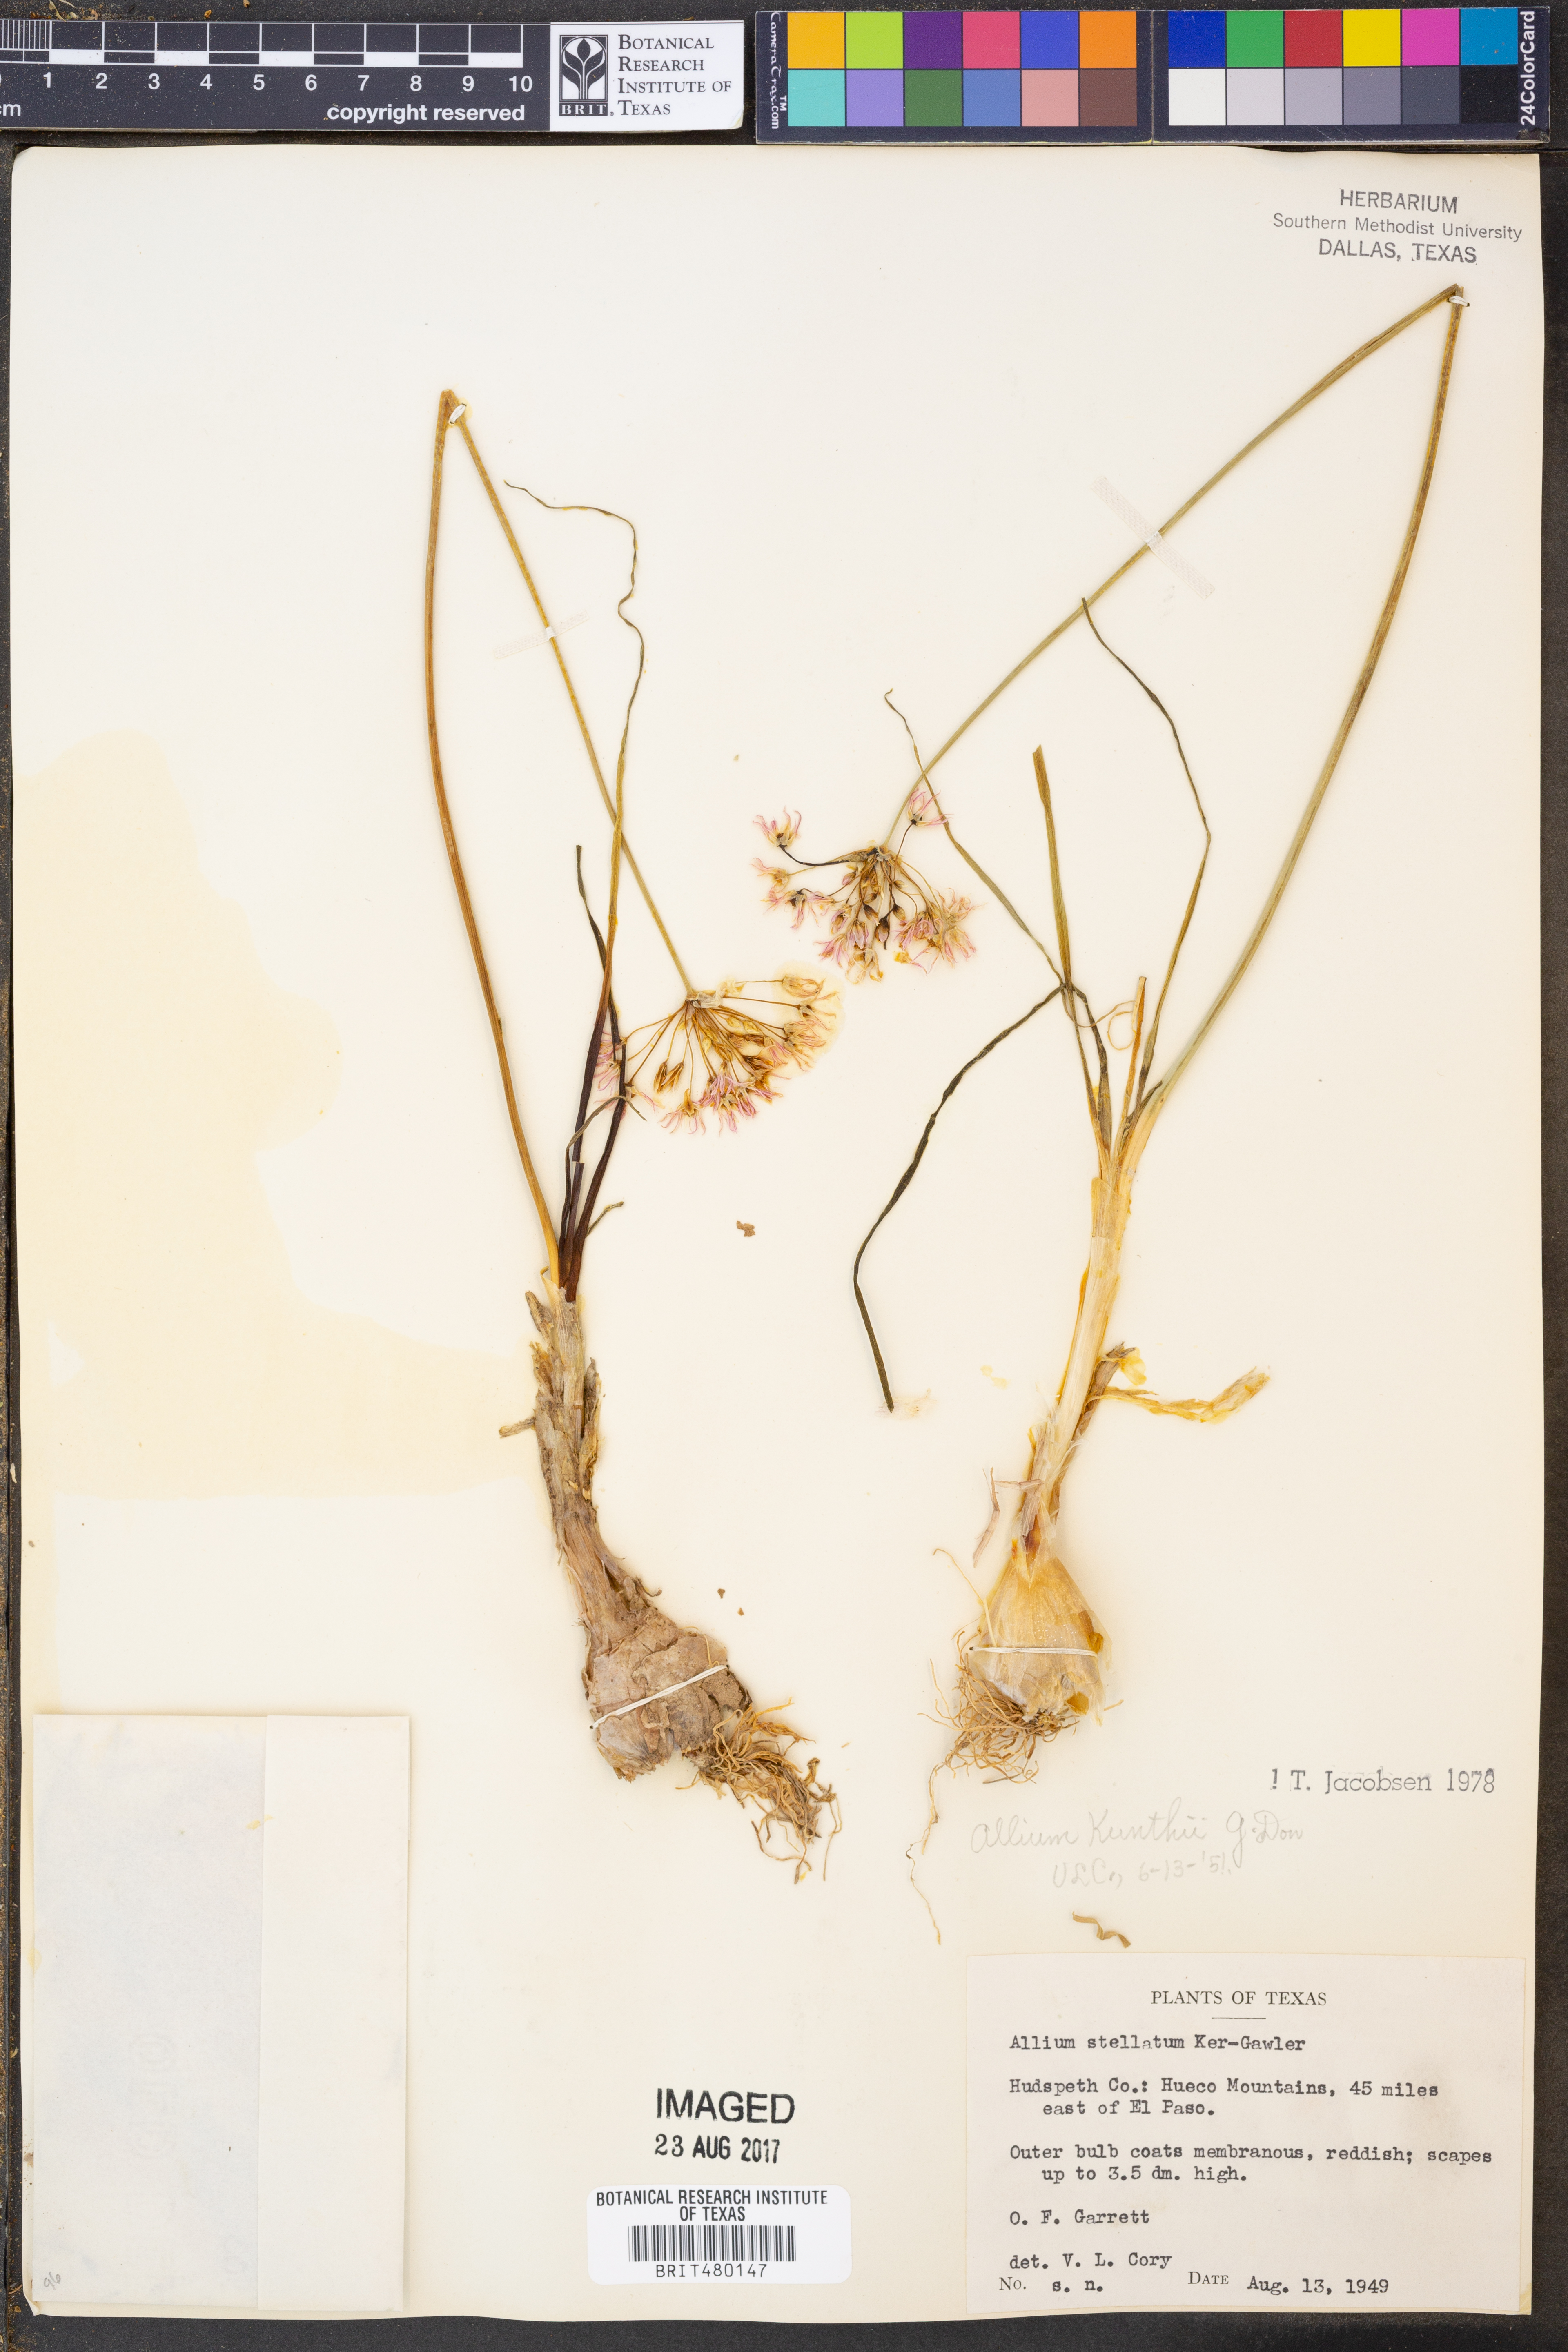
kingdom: Plantae
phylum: Tracheophyta
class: Liliopsida
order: Asparagales
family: Amaryllidaceae
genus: Allium
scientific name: Allium longifolium
